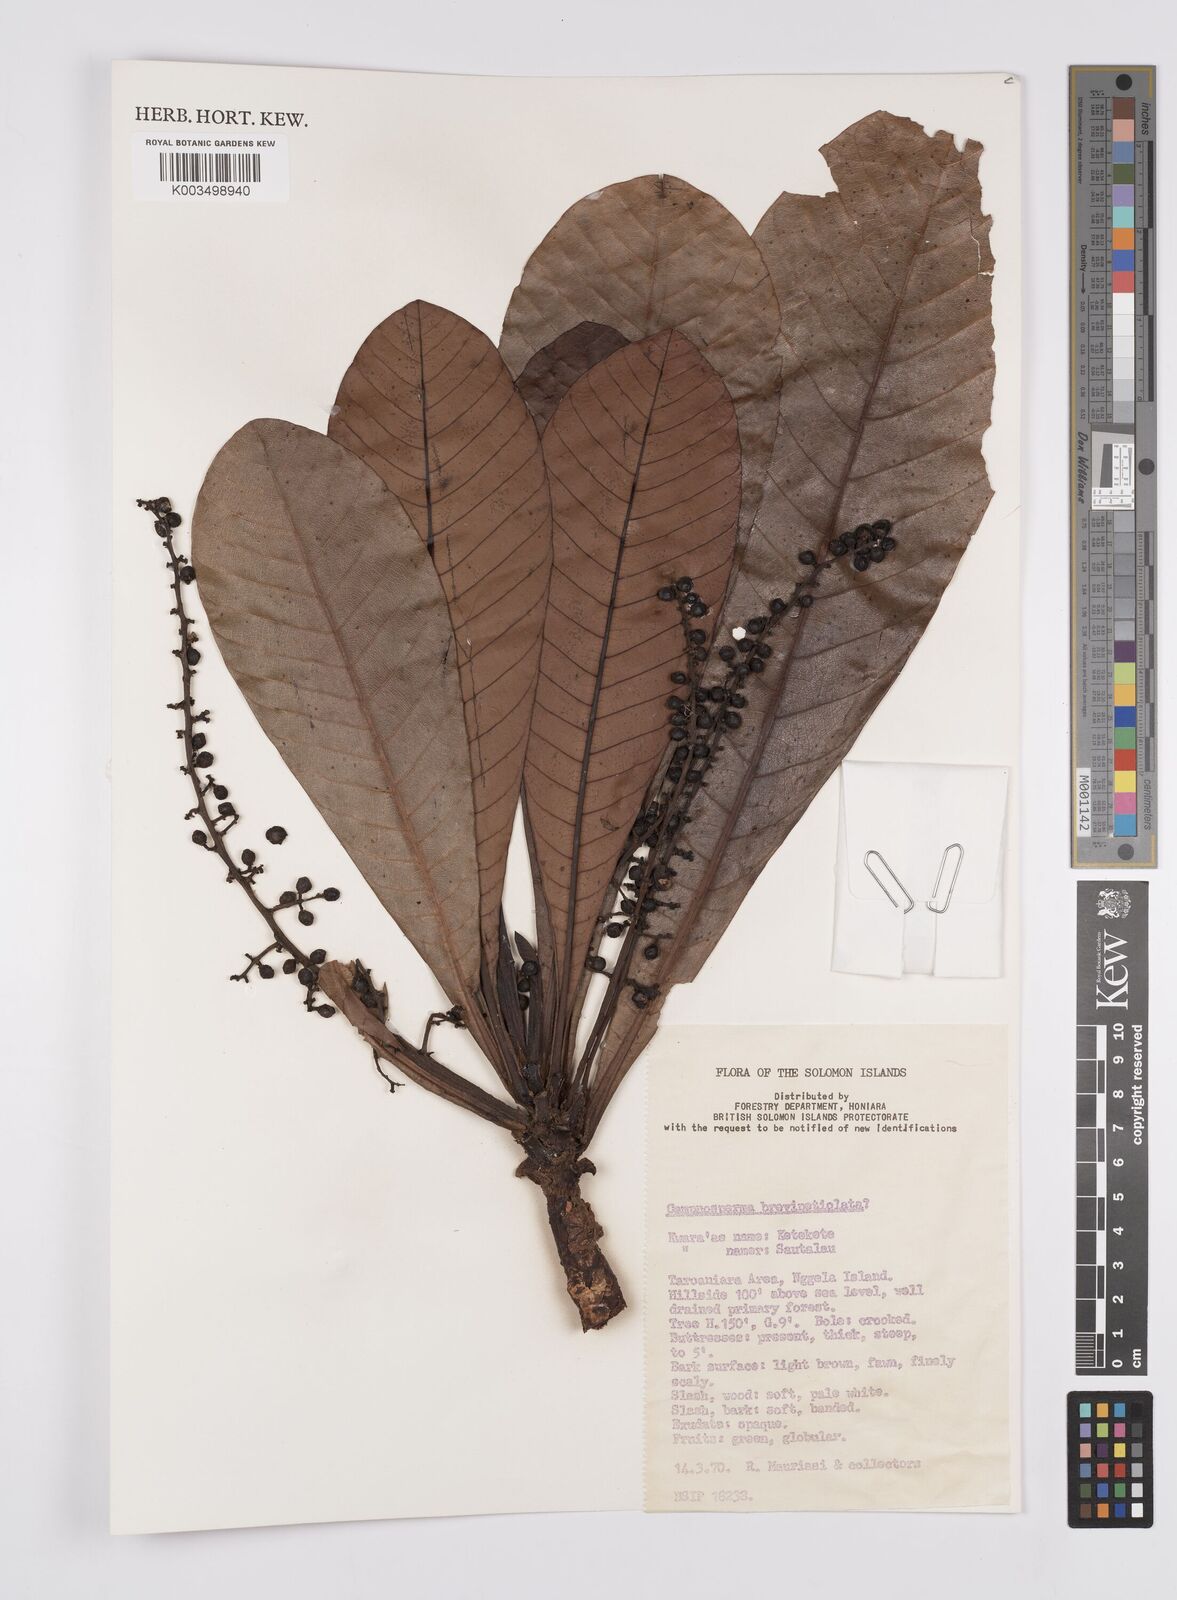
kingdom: Plantae
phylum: Tracheophyta
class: Magnoliopsida
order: Sapindales
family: Anacardiaceae
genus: Campnosperma
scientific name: Campnosperma brevipetiolatum
